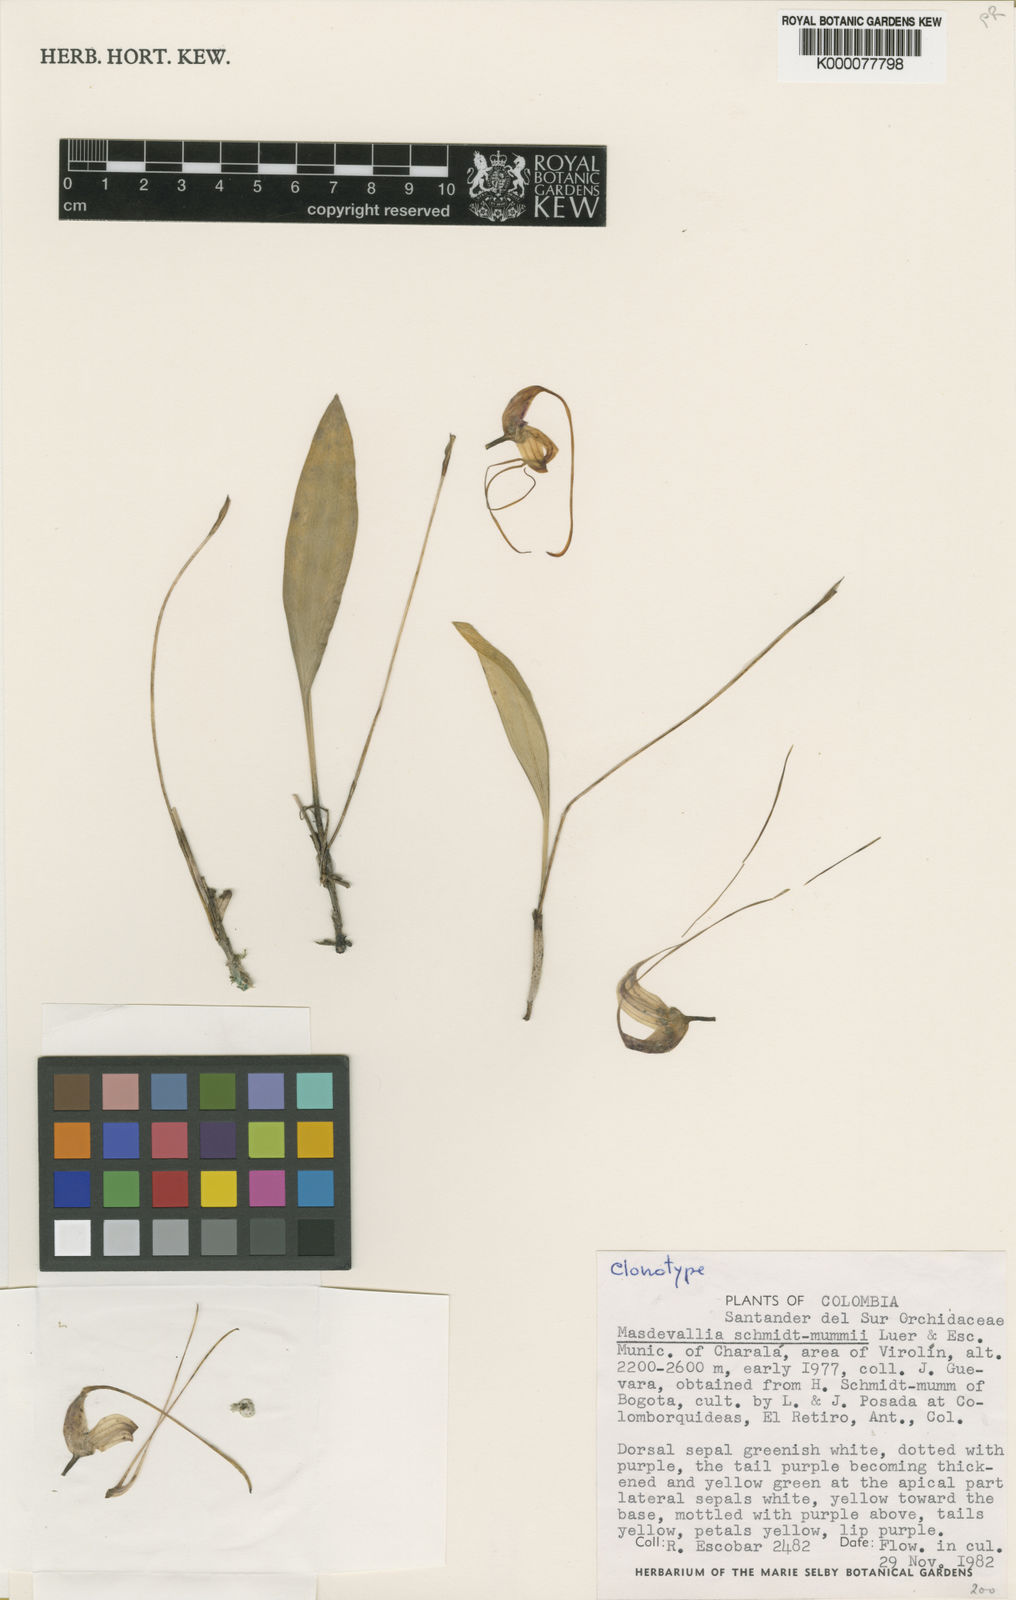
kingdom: Plantae
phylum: Tracheophyta
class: Liliopsida
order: Asparagales
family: Orchidaceae
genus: Masdevallia
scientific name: Masdevallia schmidt-mummii
